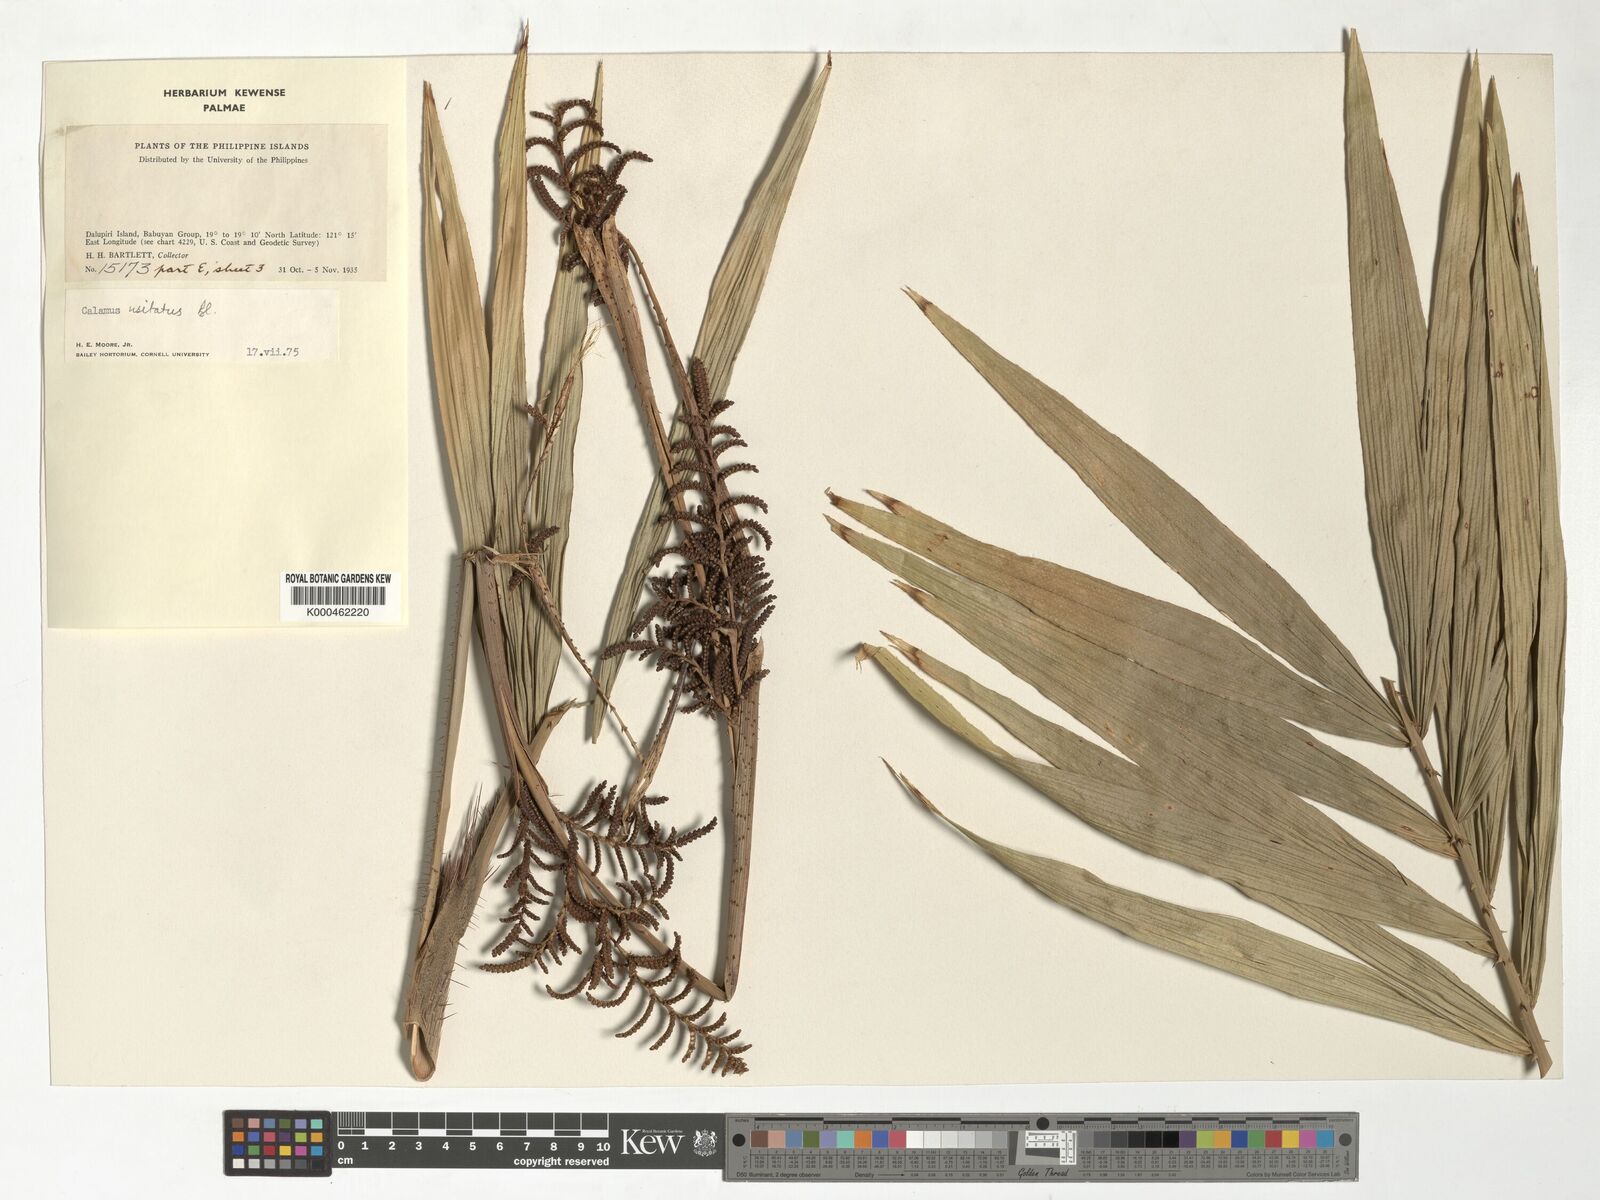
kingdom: Plantae
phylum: Tracheophyta
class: Liliopsida
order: Arecales
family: Arecaceae
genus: Calamus
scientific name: Calamus usitatus
